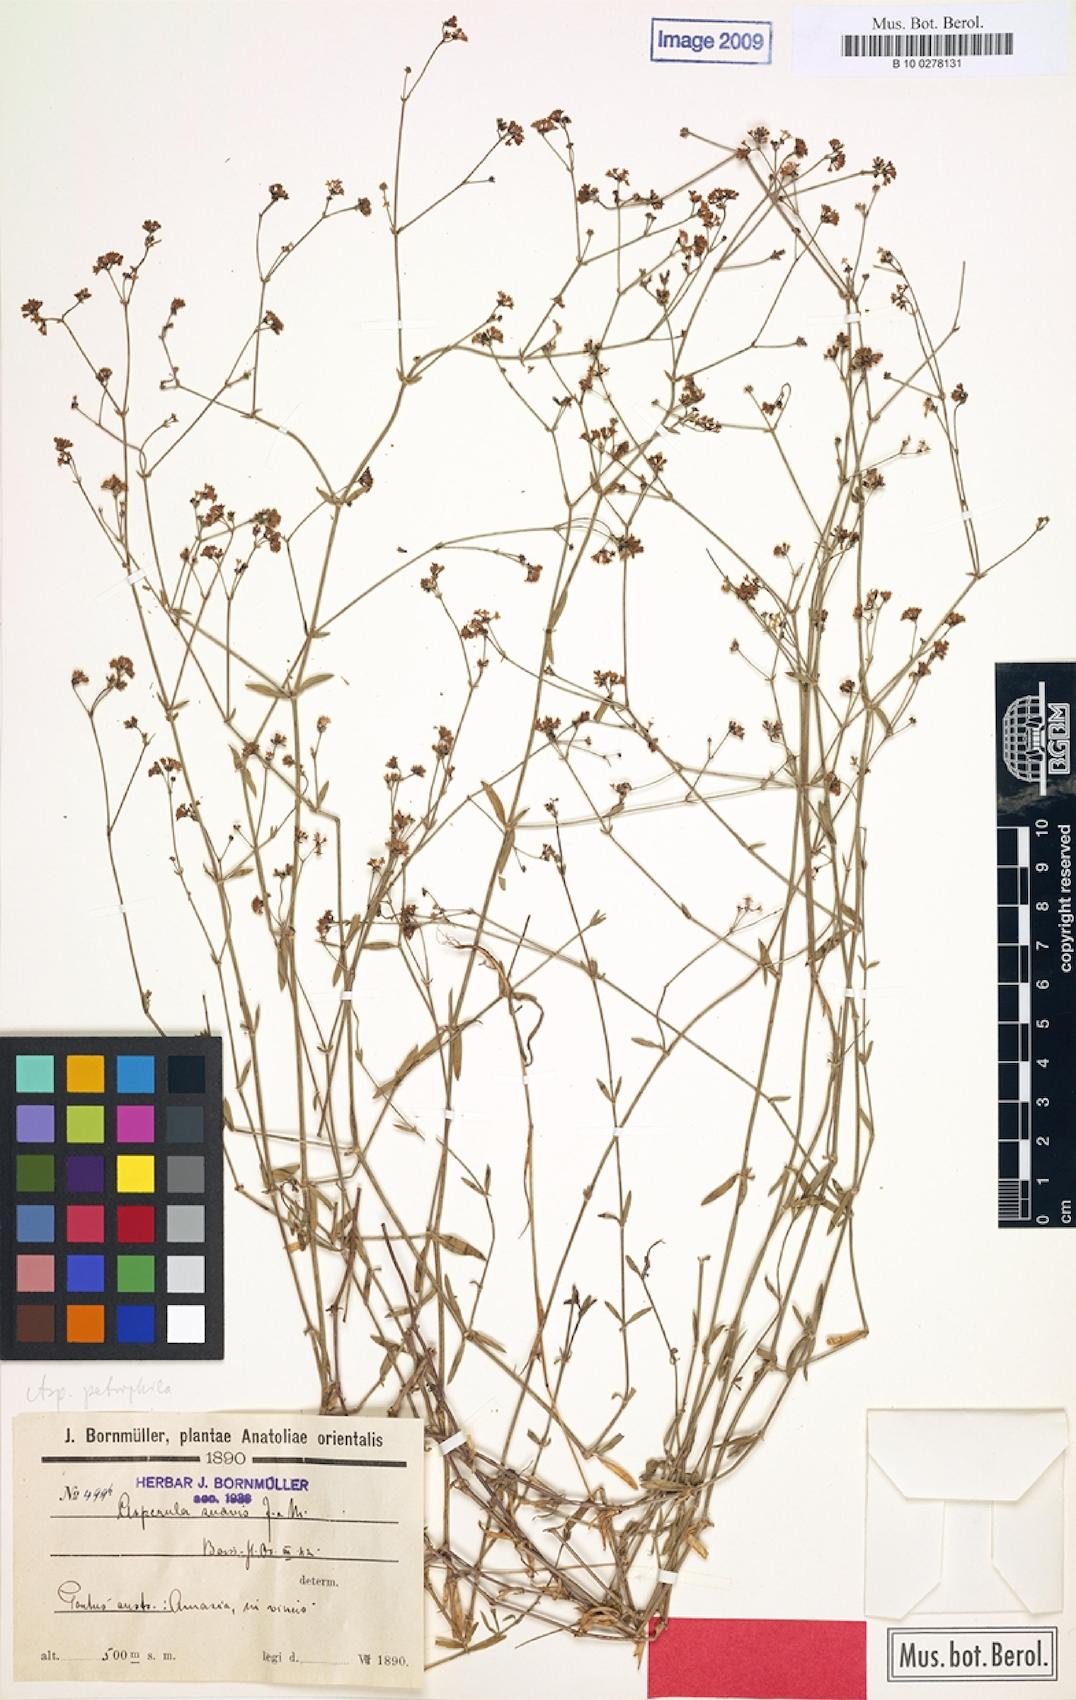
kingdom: Plantae
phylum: Tracheophyta
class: Magnoliopsida
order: Gentianales
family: Rubiaceae
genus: Asperula
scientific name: Asperula suavis
